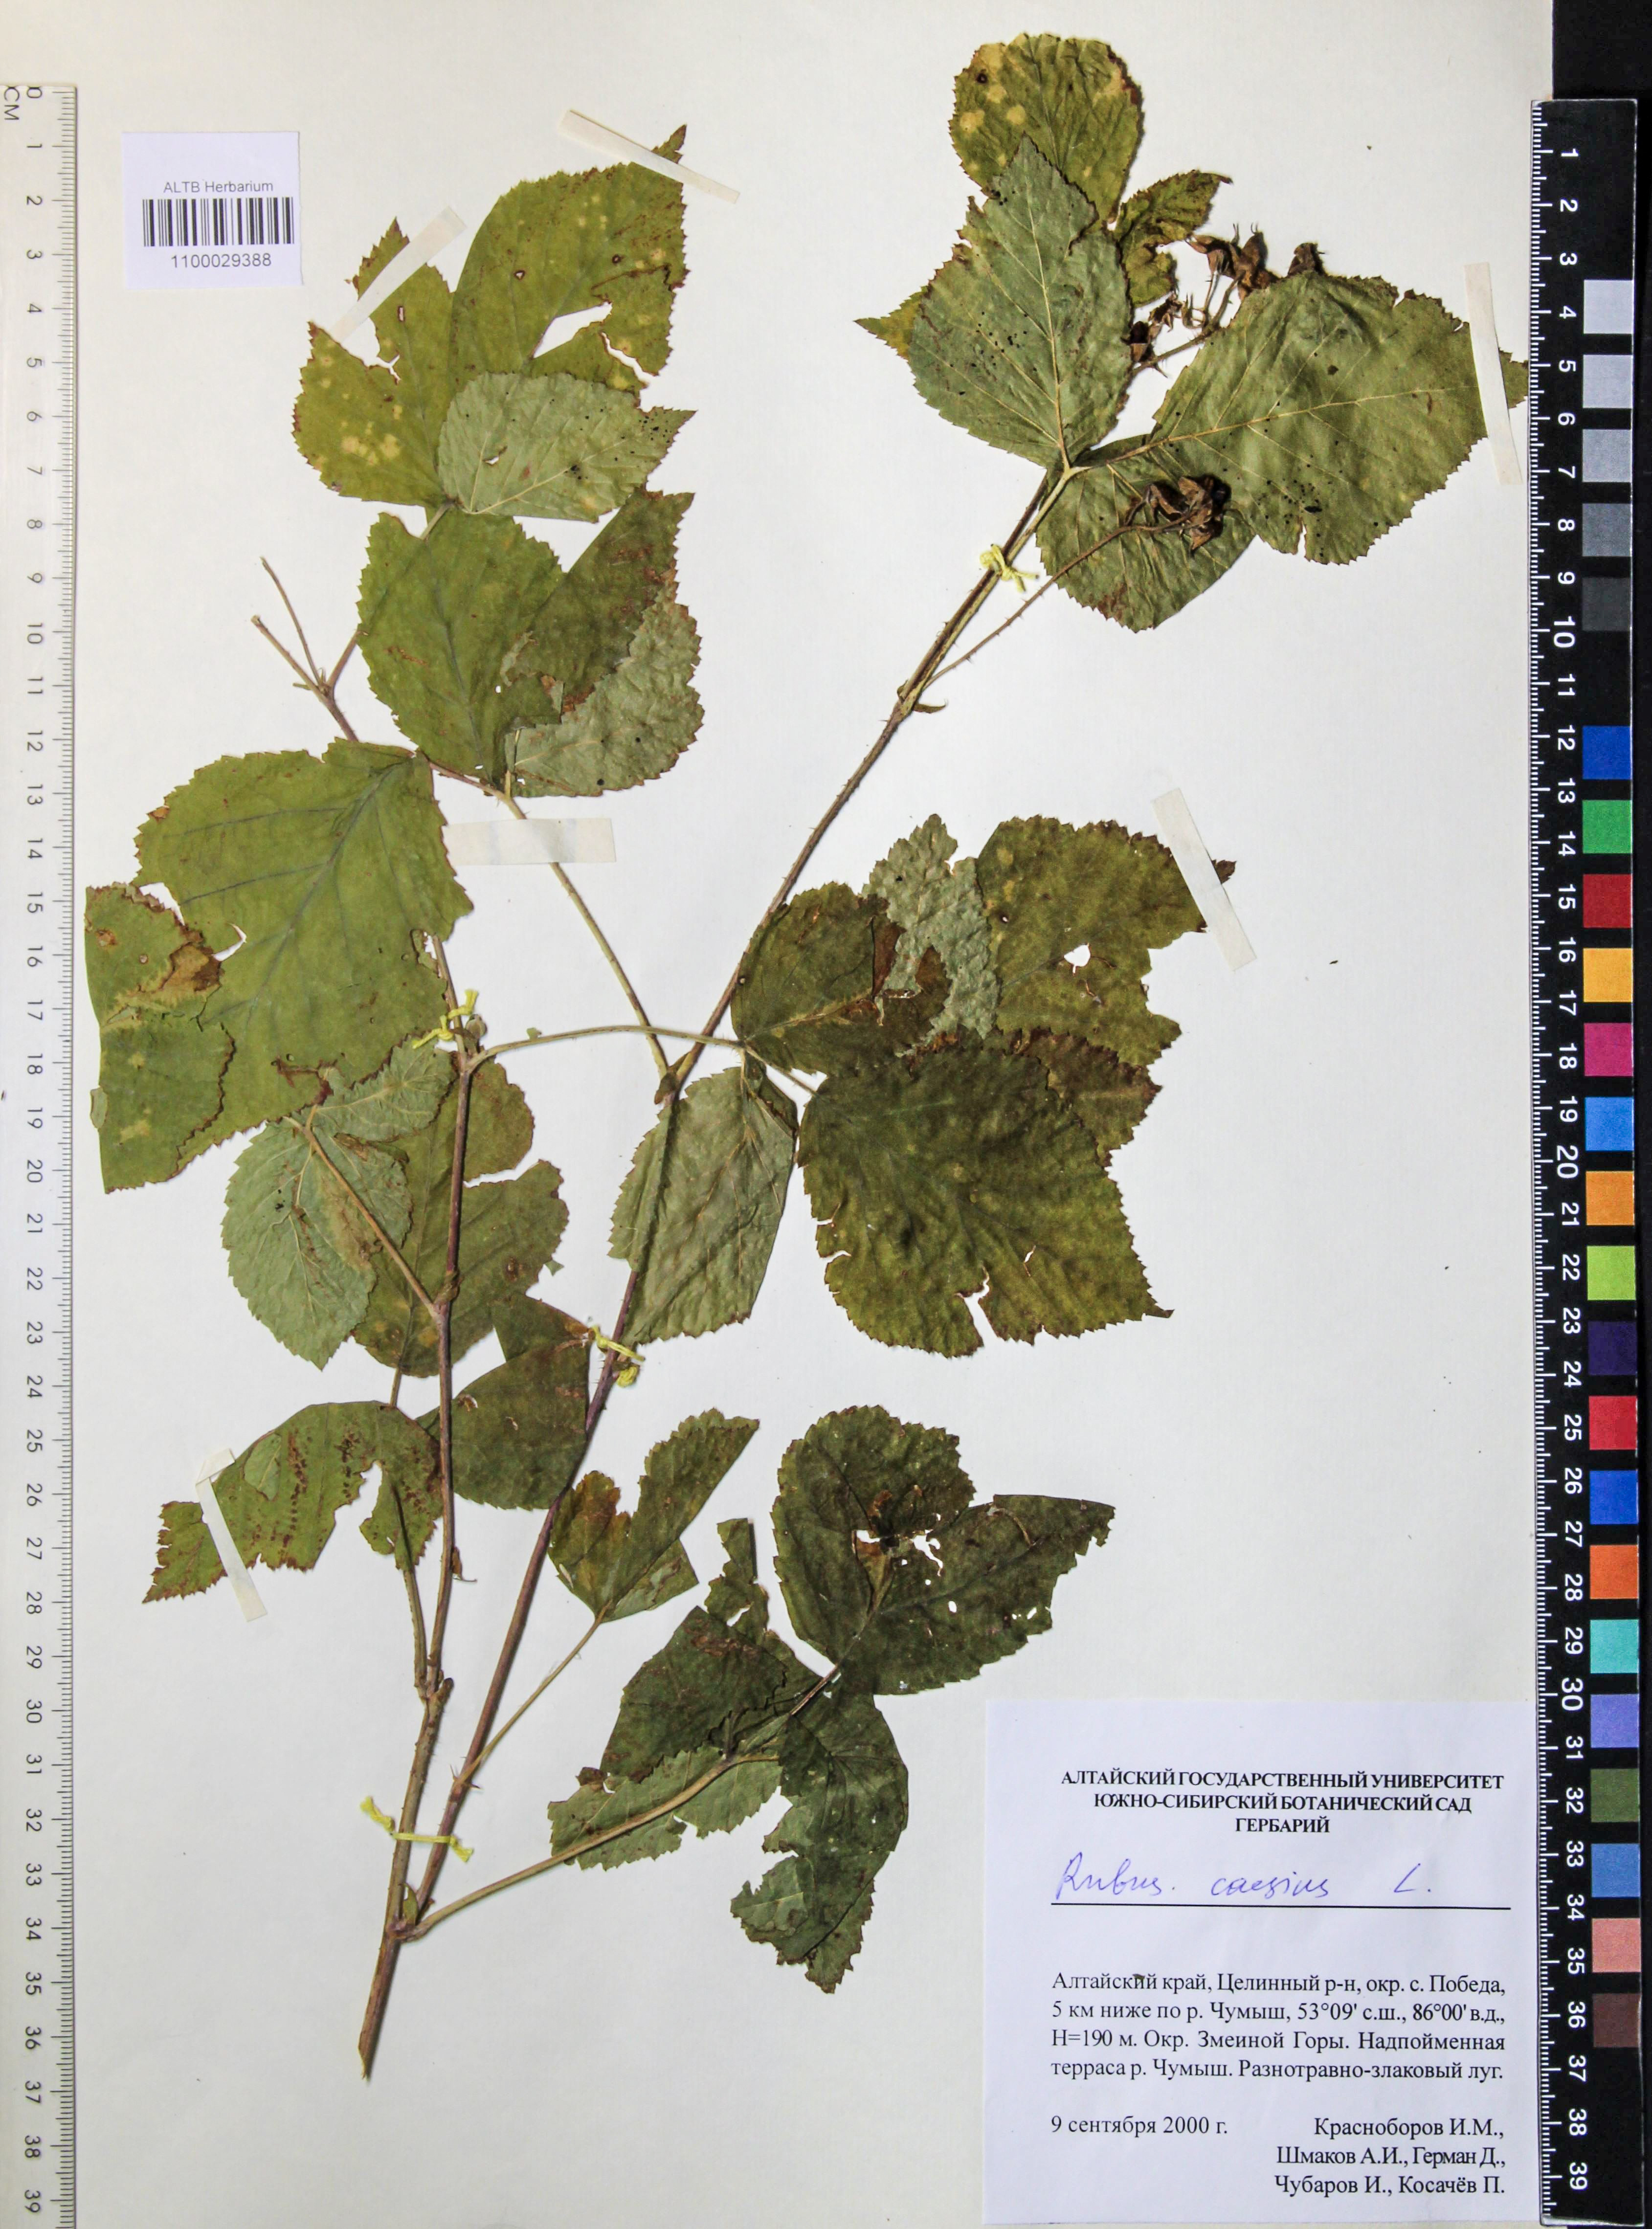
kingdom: Plantae
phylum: Tracheophyta
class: Magnoliopsida
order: Rosales
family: Rosaceae
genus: Rubus
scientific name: Rubus caesius
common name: Dewberry
